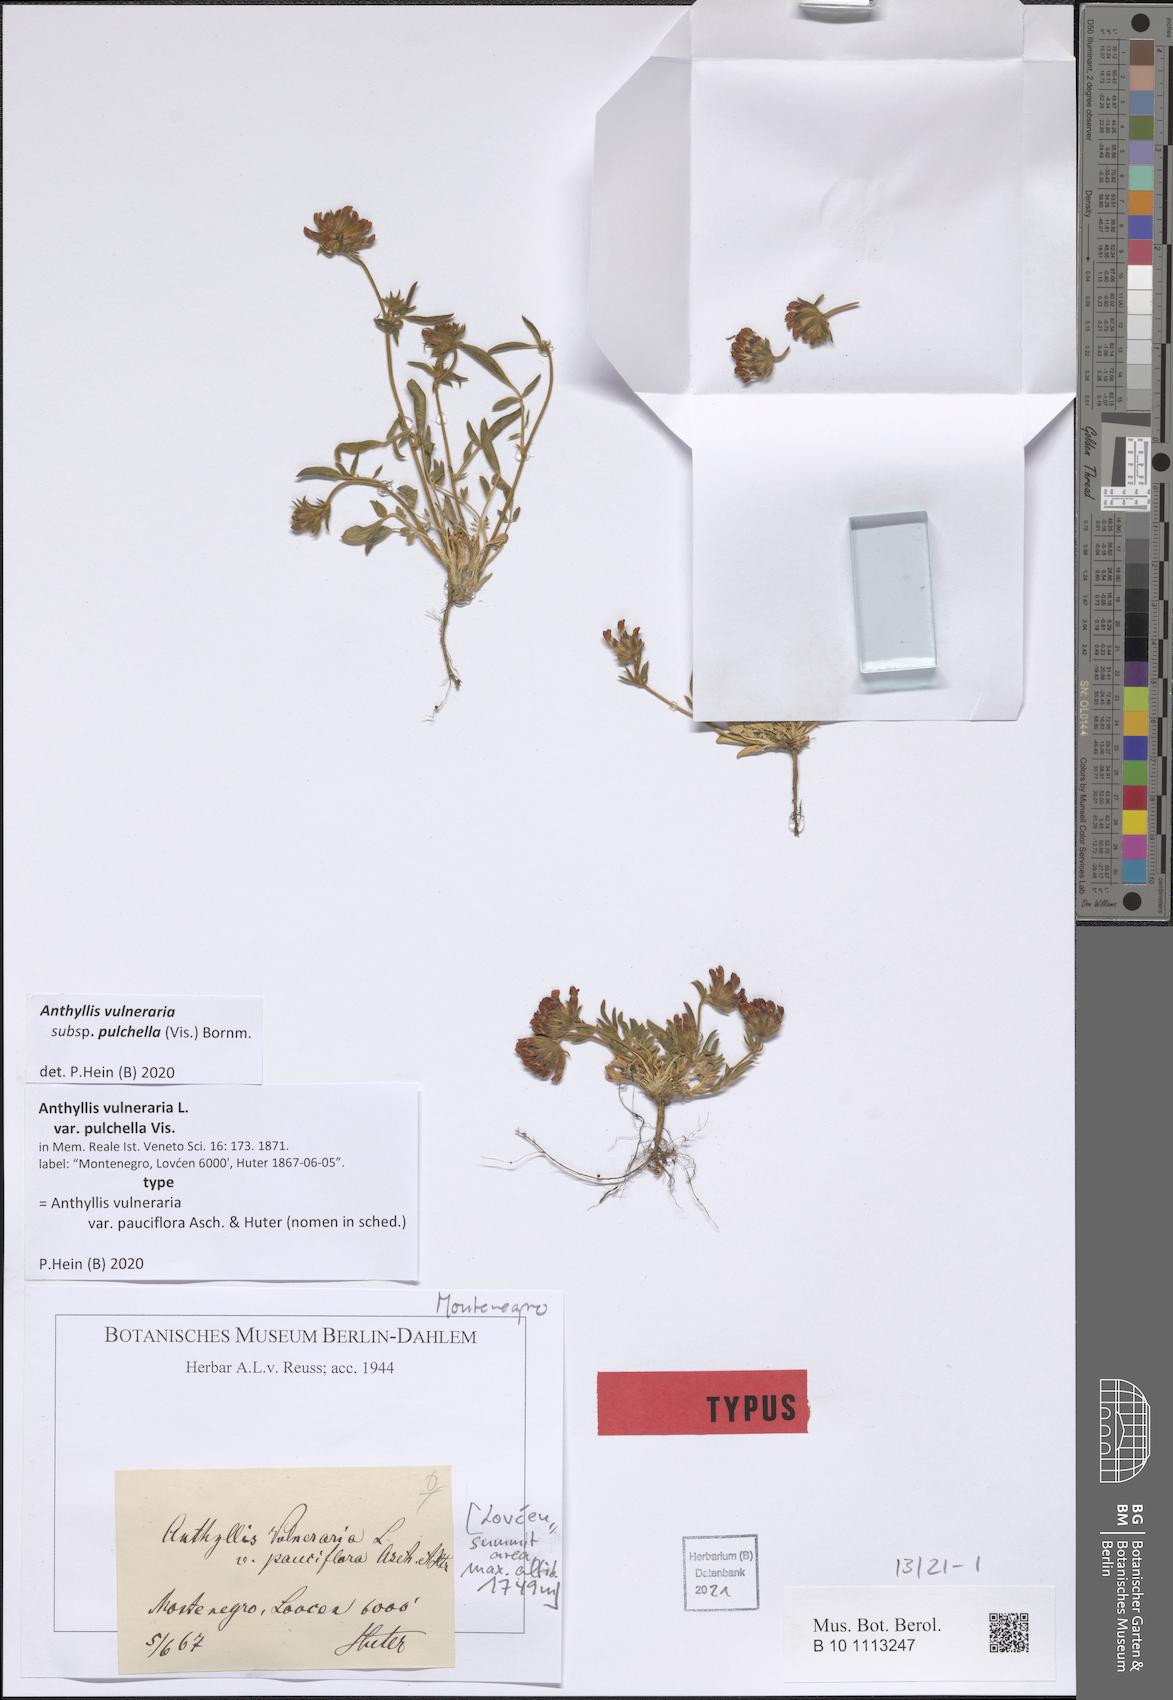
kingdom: Plantae
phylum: Tracheophyta
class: Magnoliopsida
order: Fabales
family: Fabaceae
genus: Anthyllis
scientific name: Anthyllis vulneraria
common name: Kidney vetch
